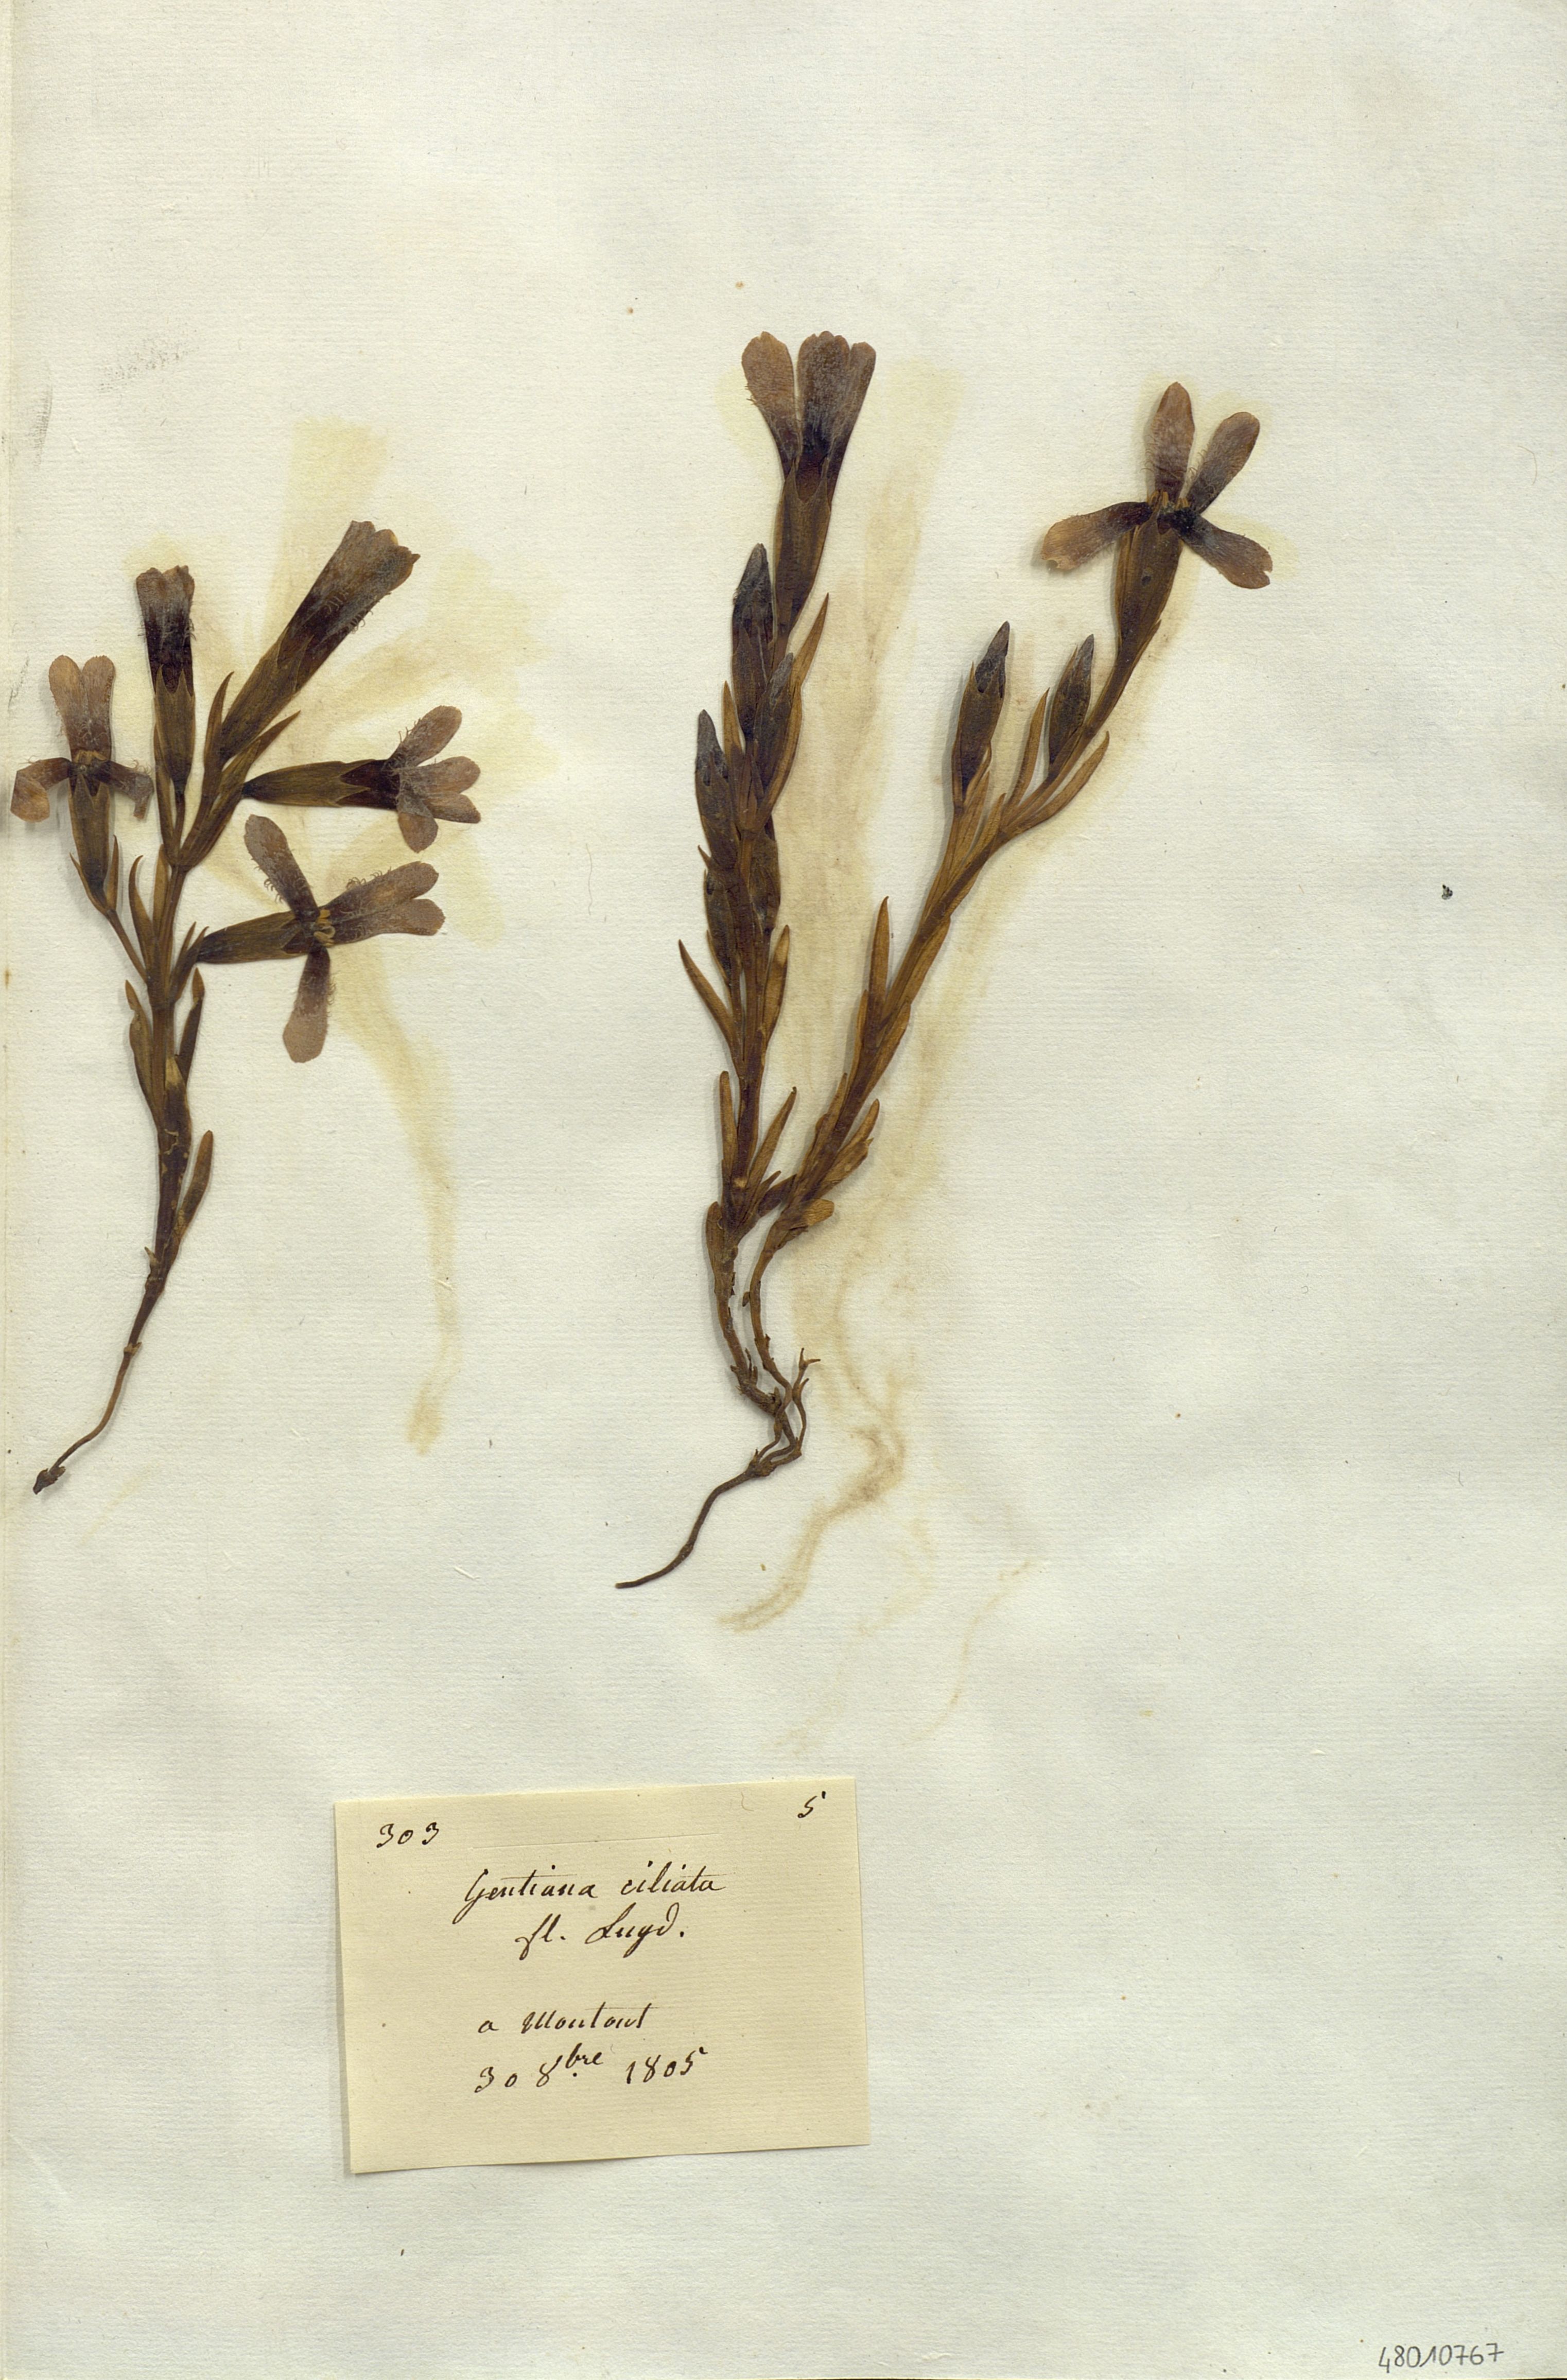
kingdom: Plantae
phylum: Tracheophyta
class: Magnoliopsida
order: Gentianales
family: Gentianaceae
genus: Gentianopsis
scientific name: Gentianopsis
